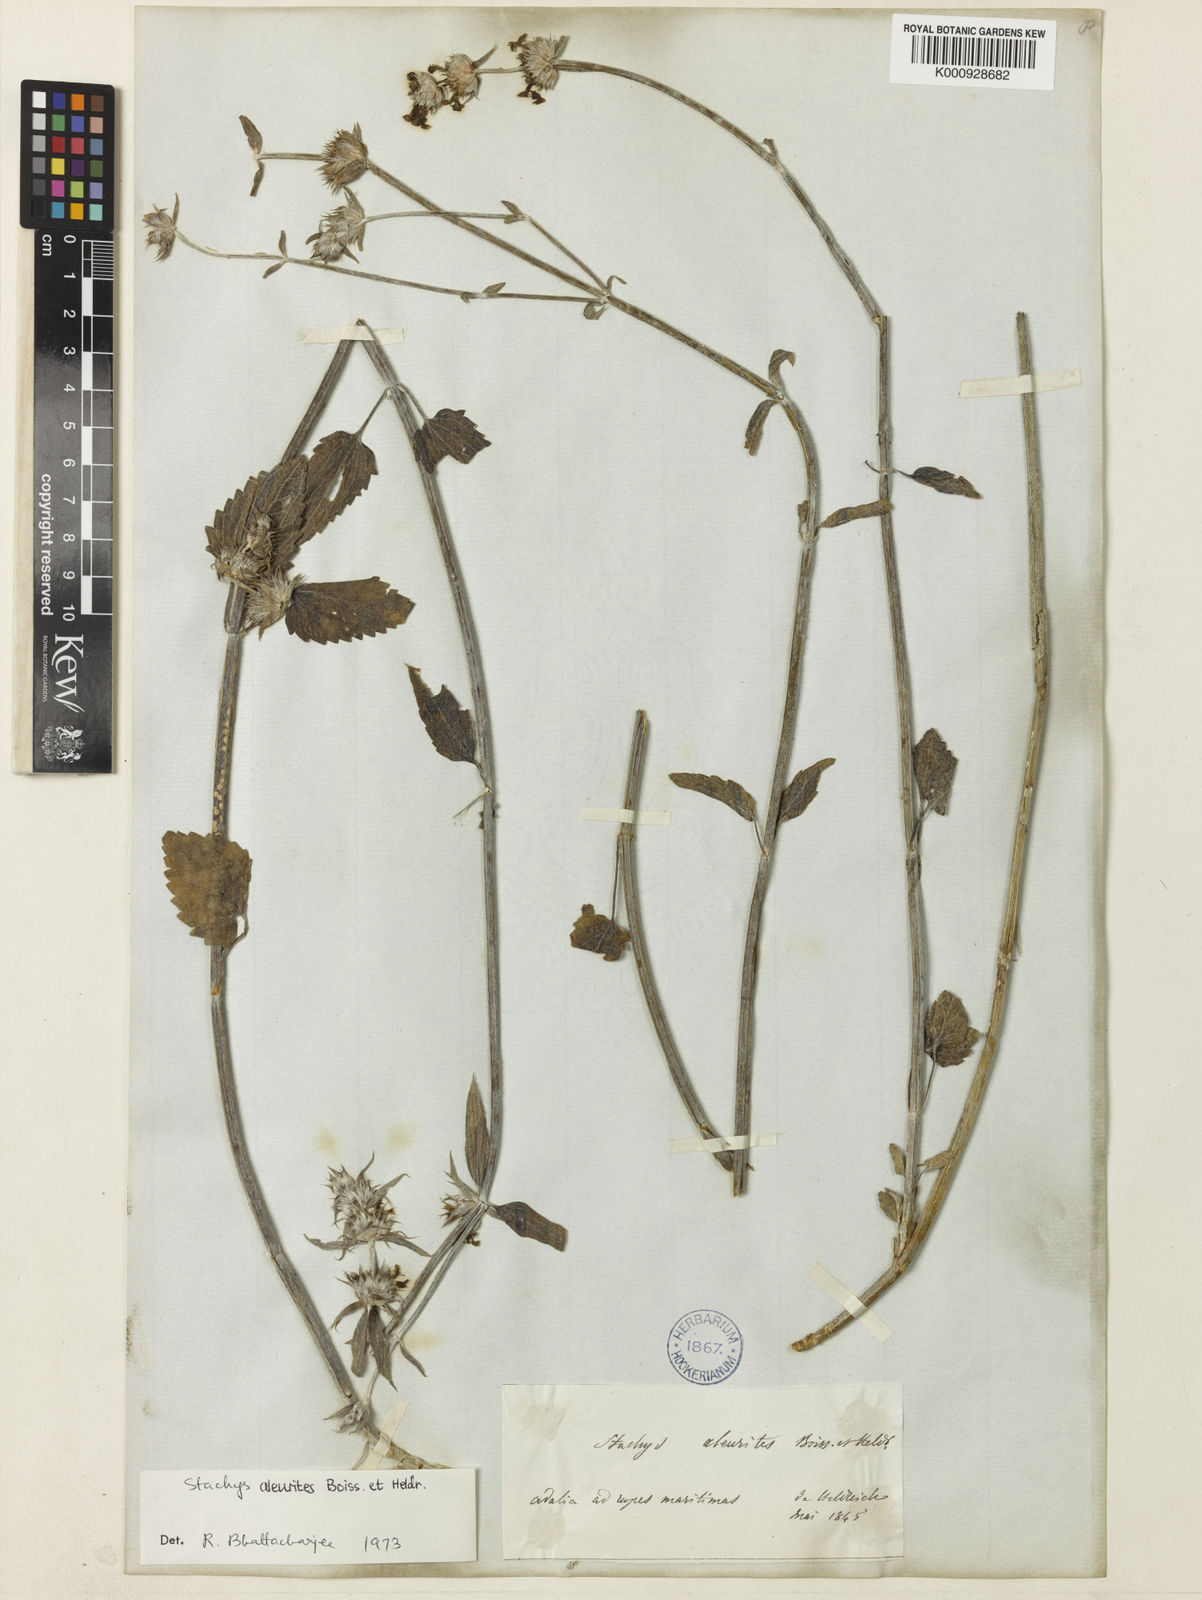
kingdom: Plantae
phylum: Tracheophyta
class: Magnoliopsida
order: Lamiales
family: Lamiaceae
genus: Stachys
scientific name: Stachys aleurites
